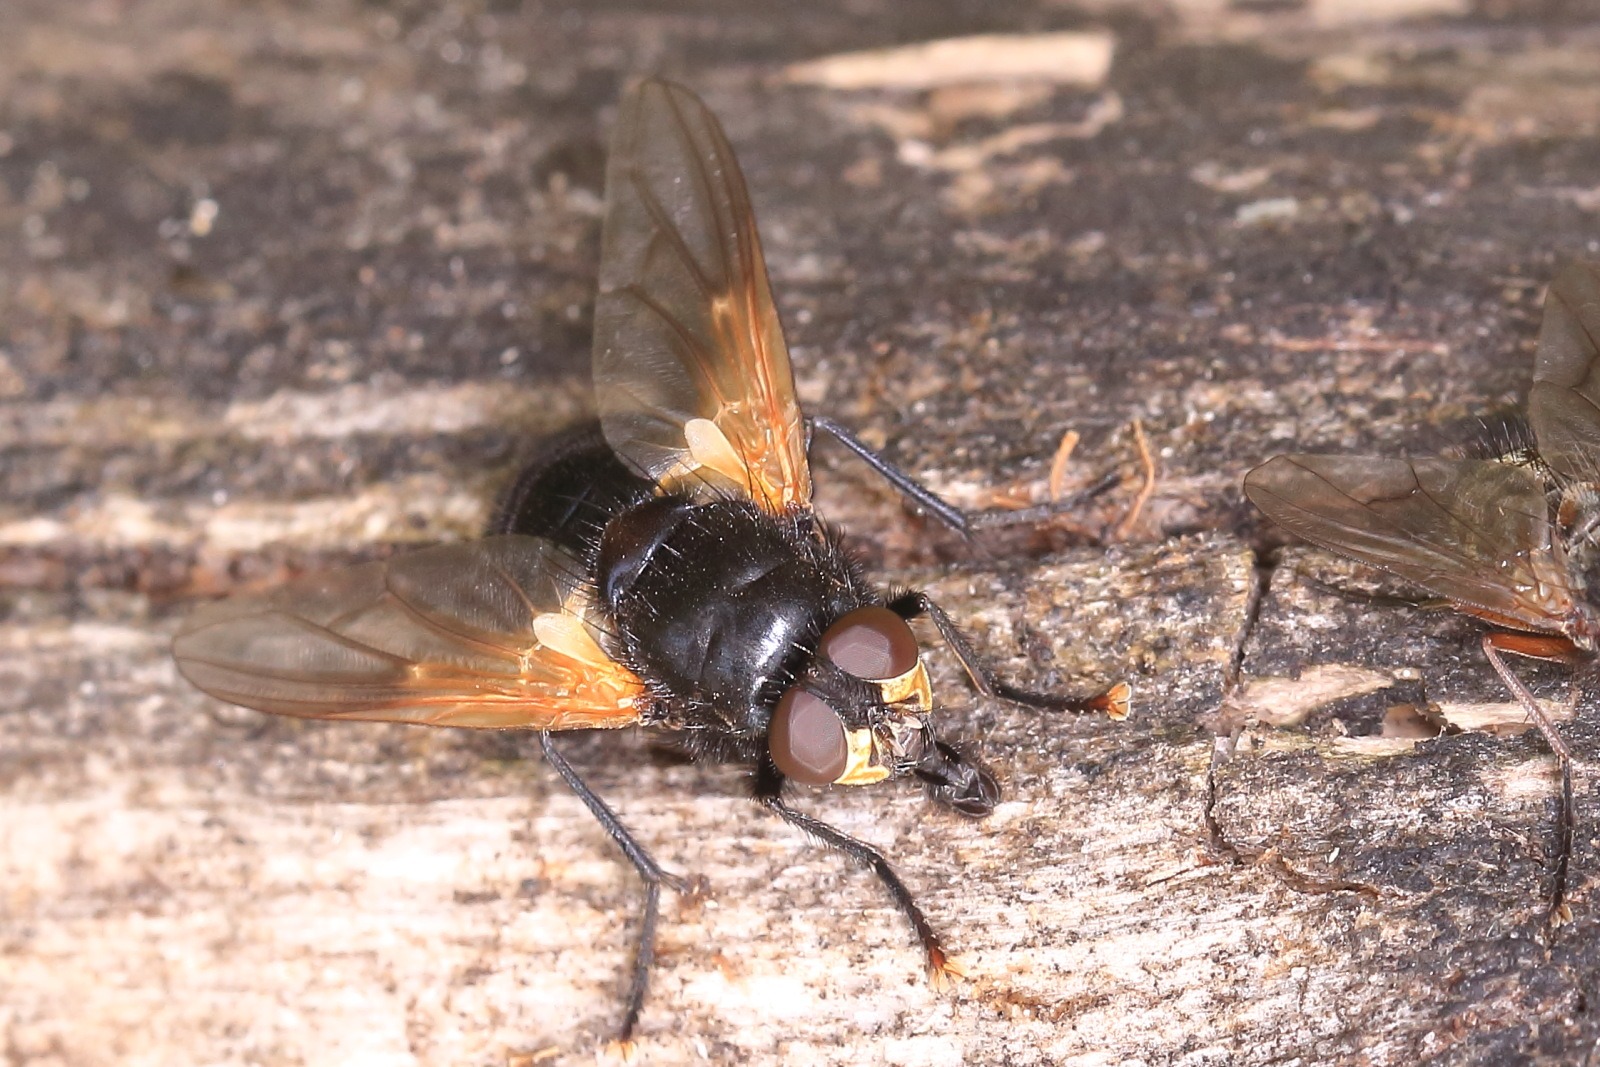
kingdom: Animalia
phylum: Arthropoda
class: Insecta
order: Diptera
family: Muscidae
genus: Mesembrina
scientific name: Mesembrina meridiana
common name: Gulvinget flue
